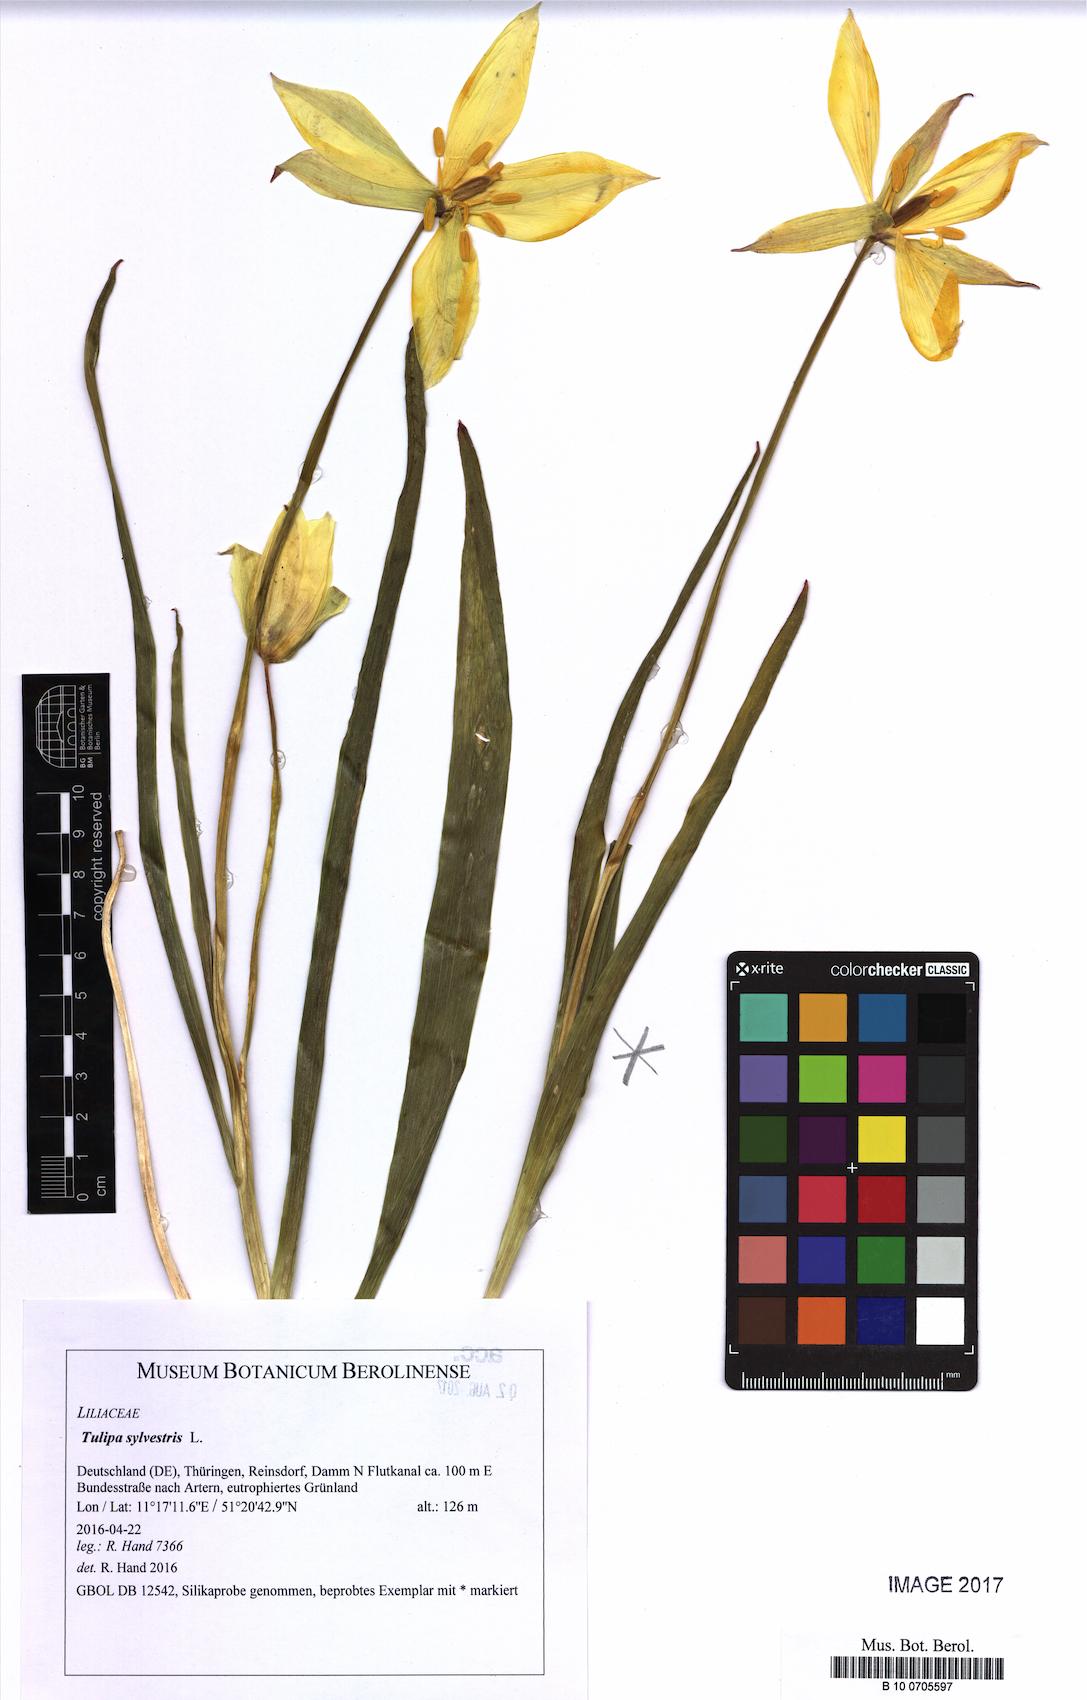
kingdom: Plantae
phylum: Tracheophyta
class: Liliopsida
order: Liliales
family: Liliaceae
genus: Tulipa
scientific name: Tulipa sylvestris
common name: Wild tulip
